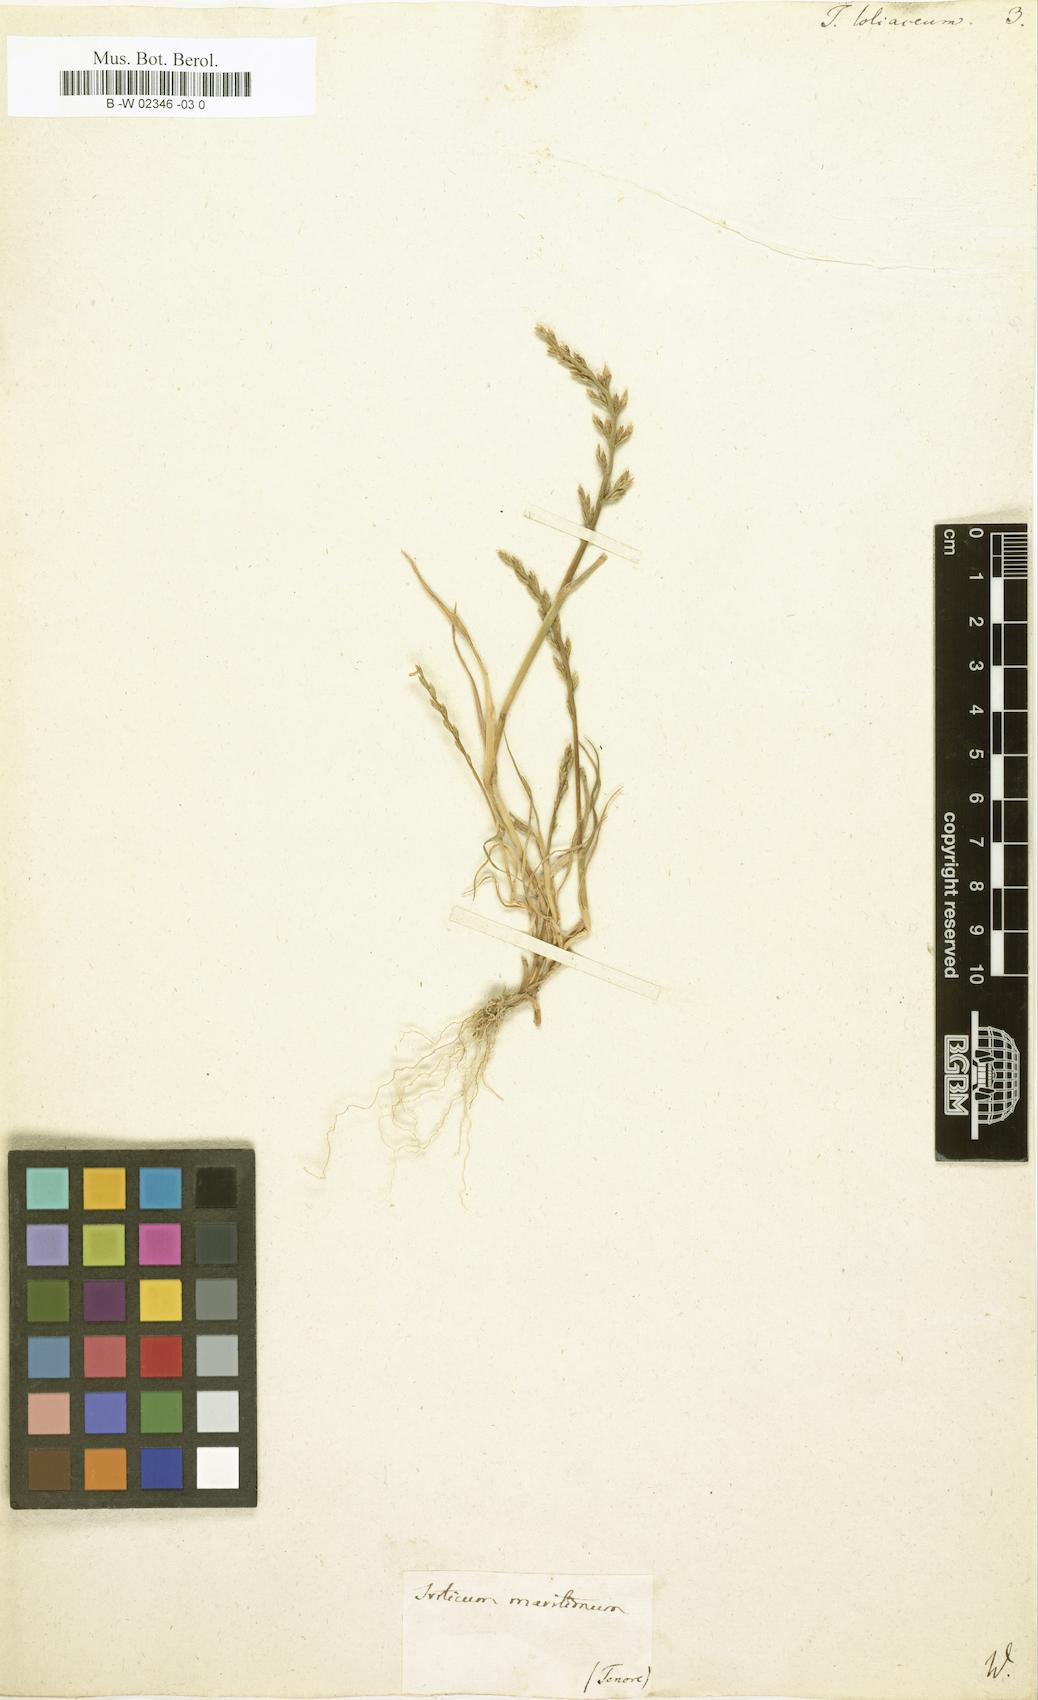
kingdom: Plantae
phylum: Tracheophyta
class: Liliopsida
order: Poales
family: Poaceae
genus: Catapodium
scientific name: Catapodium marinum
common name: Sea fern-grass
